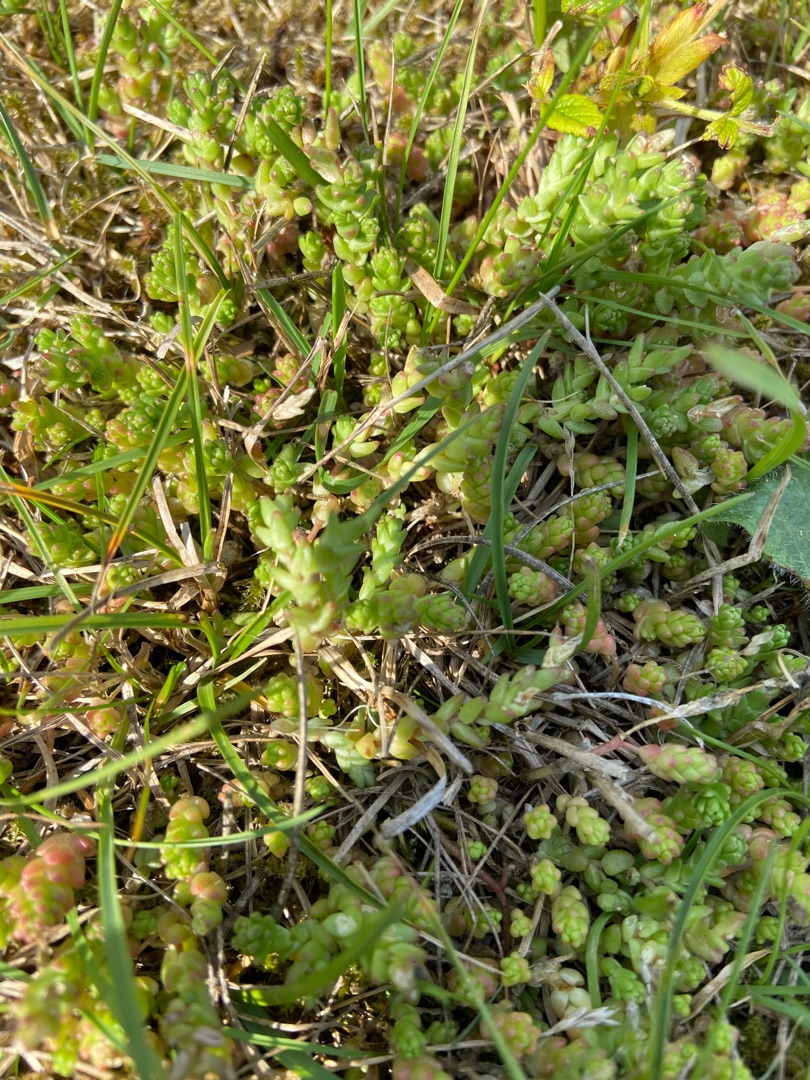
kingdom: Plantae
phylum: Tracheophyta
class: Magnoliopsida
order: Saxifragales
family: Crassulaceae
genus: Sedum
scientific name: Sedum acre
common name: Bidende stenurt
